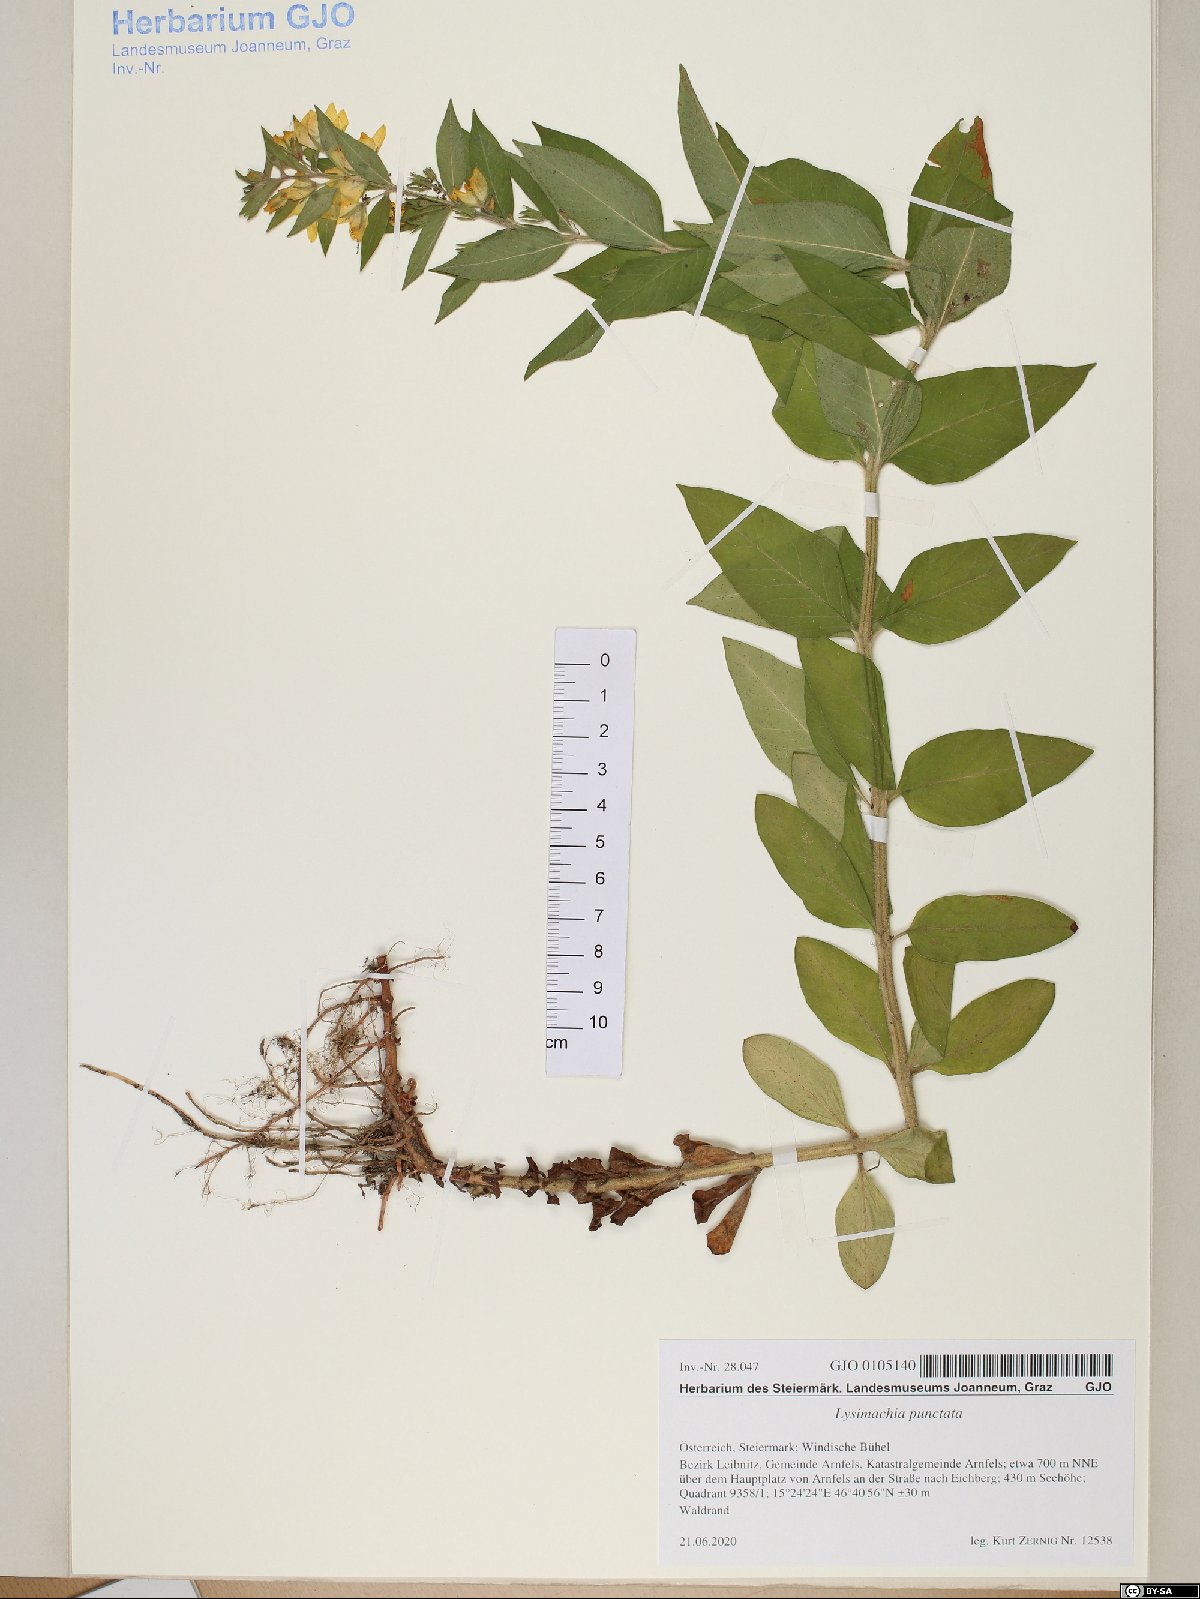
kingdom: Plantae
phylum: Tracheophyta
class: Magnoliopsida
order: Ericales
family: Primulaceae
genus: Lysimachia
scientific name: Lysimachia punctata
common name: Dotted loosestrife
